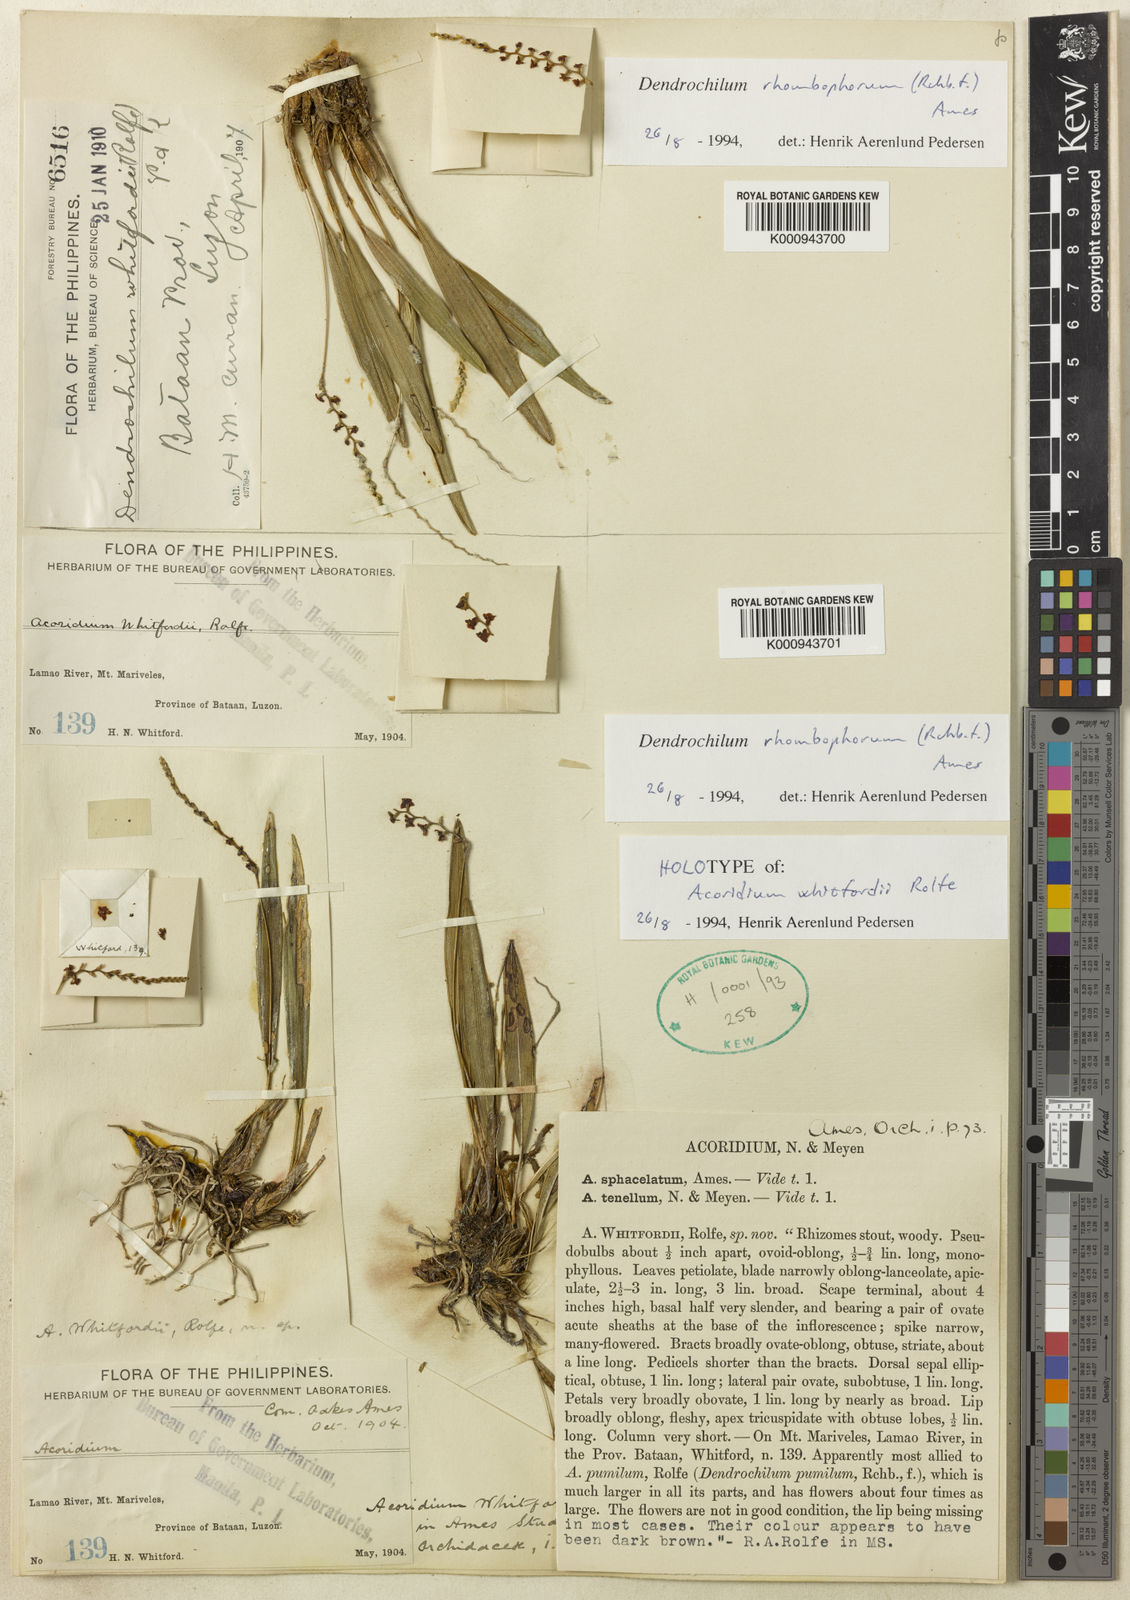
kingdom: Plantae
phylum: Tracheophyta
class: Liliopsida
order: Asparagales
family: Orchidaceae
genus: Coelogyne
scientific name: Coelogyne rhombophora
